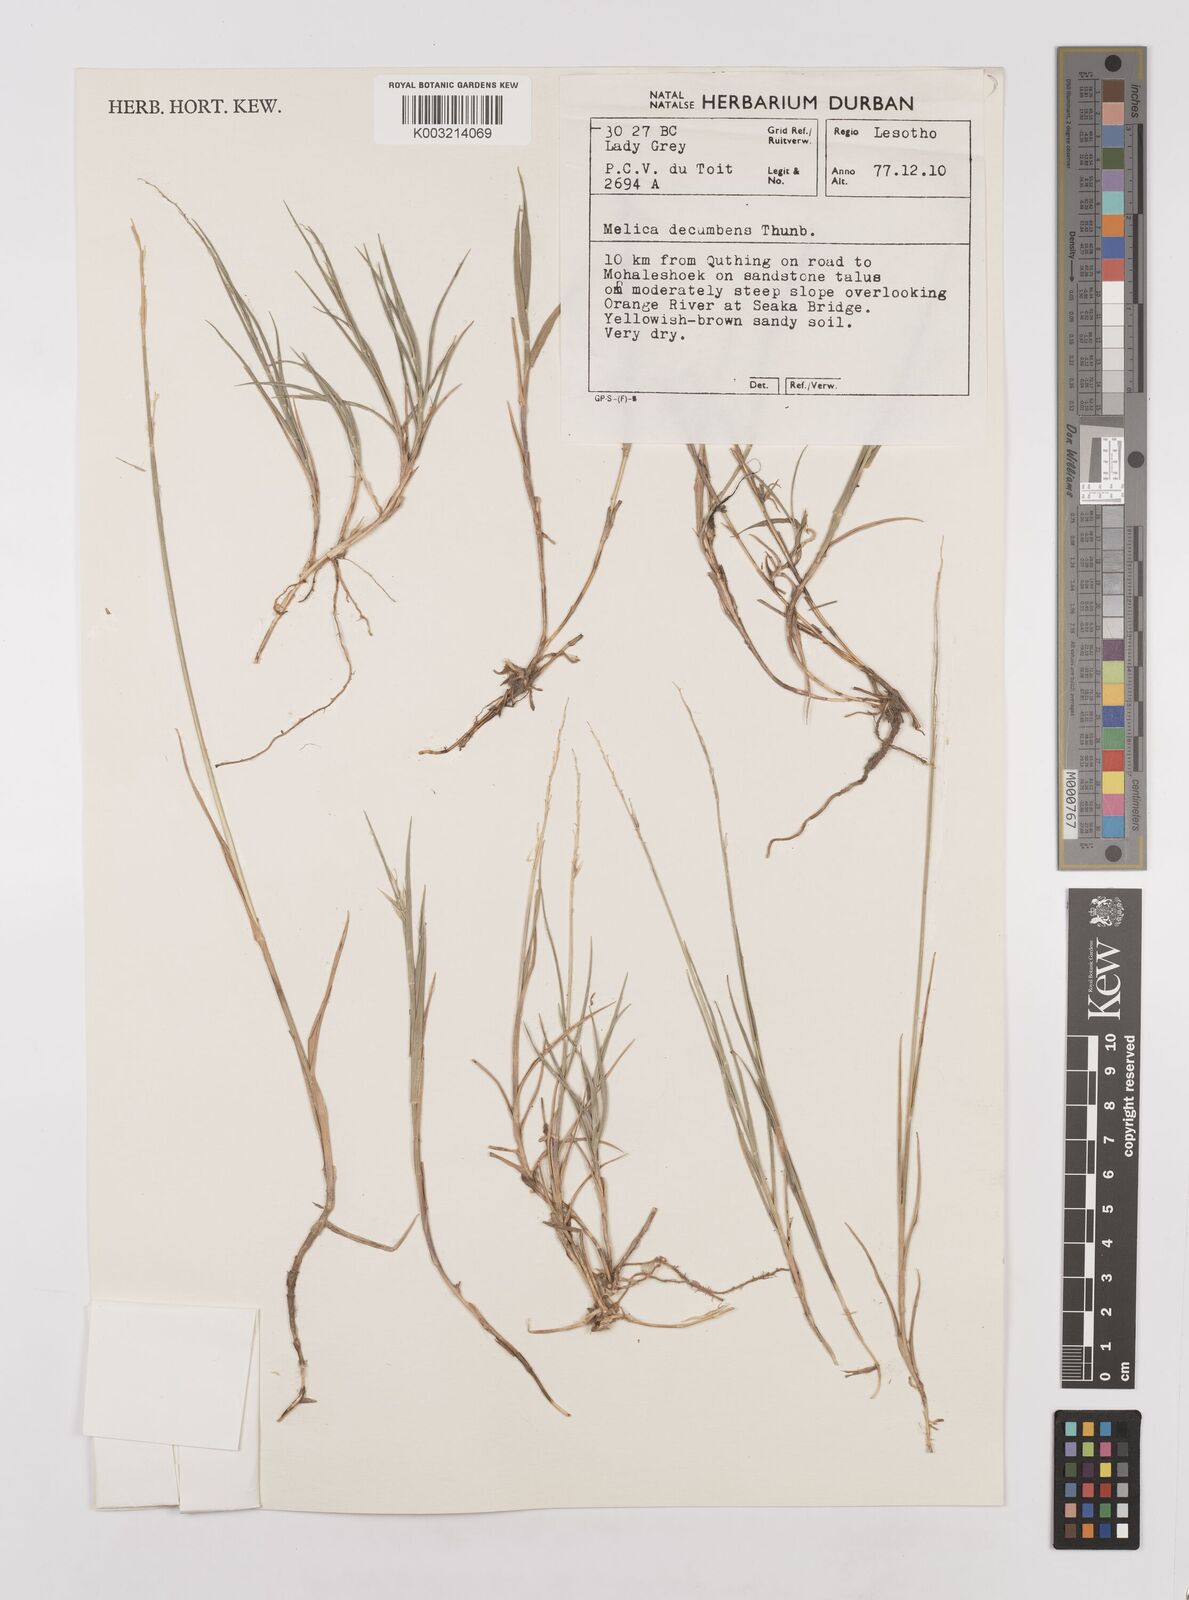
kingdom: Plantae
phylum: Tracheophyta
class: Liliopsida
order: Poales
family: Poaceae
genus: Melica
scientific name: Melica dendroides
